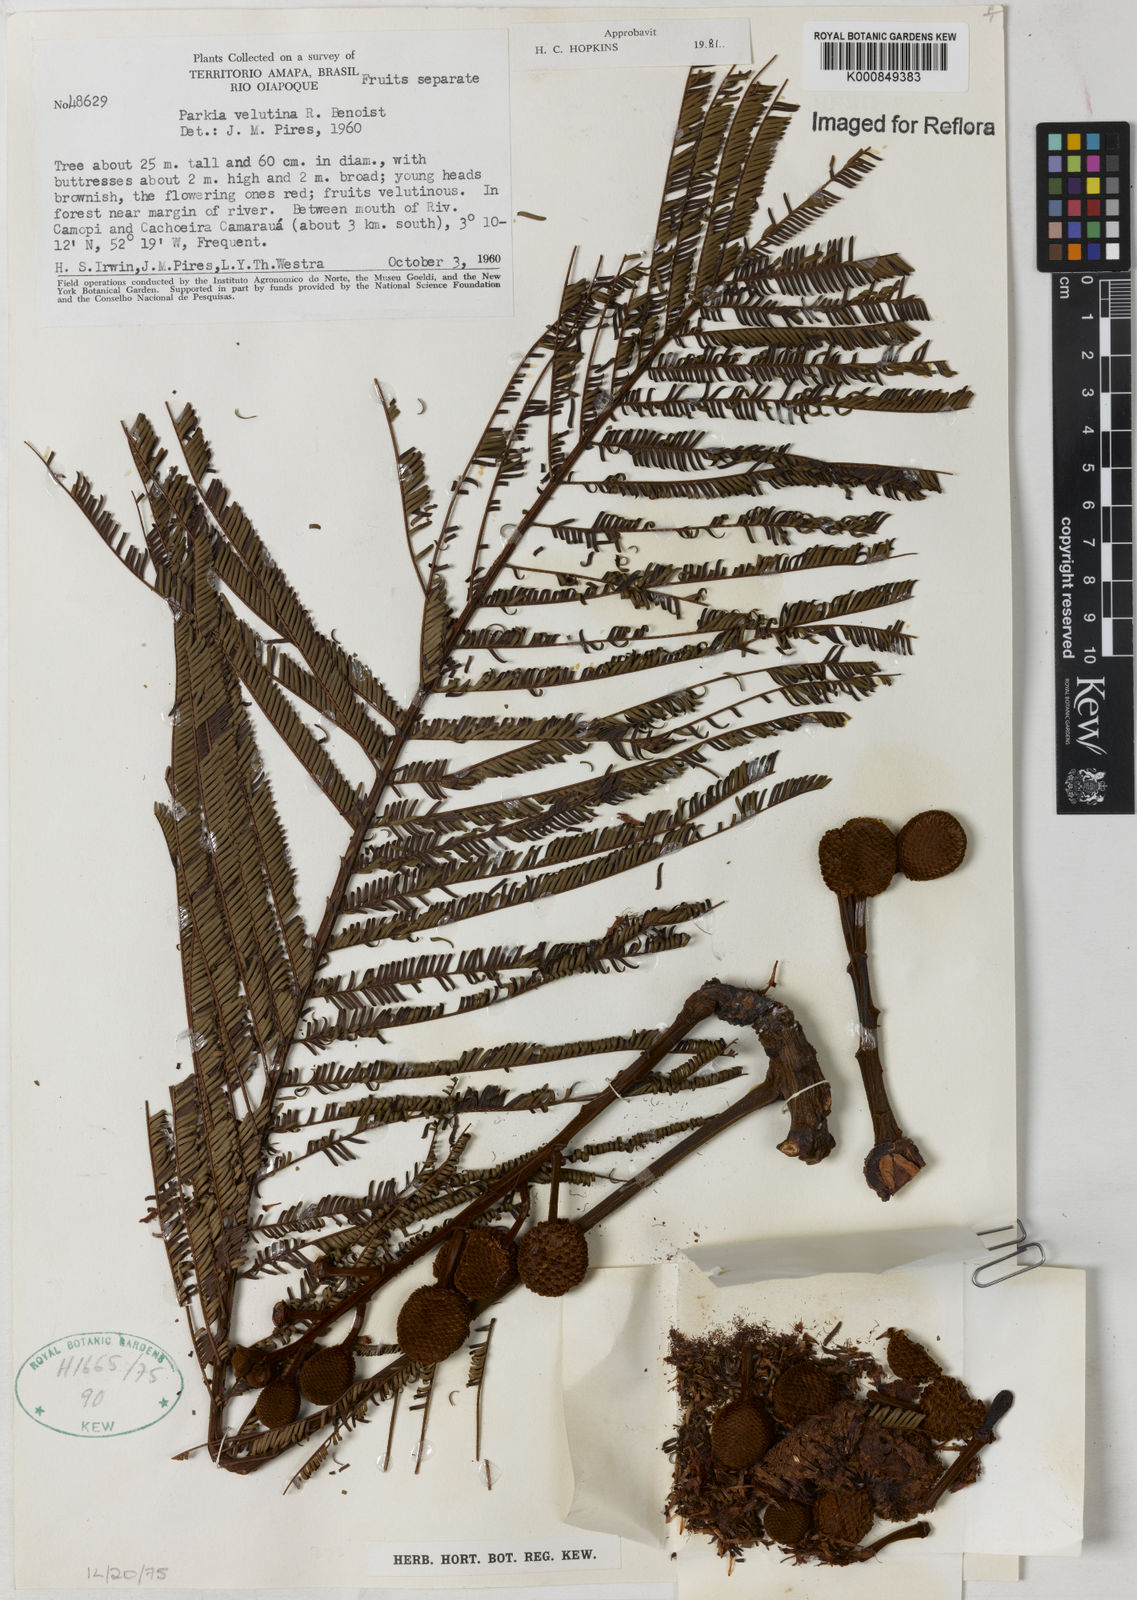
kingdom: Plantae
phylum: Tracheophyta
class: Magnoliopsida
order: Fabales
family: Fabaceae
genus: Parkia
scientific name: Parkia velutina
